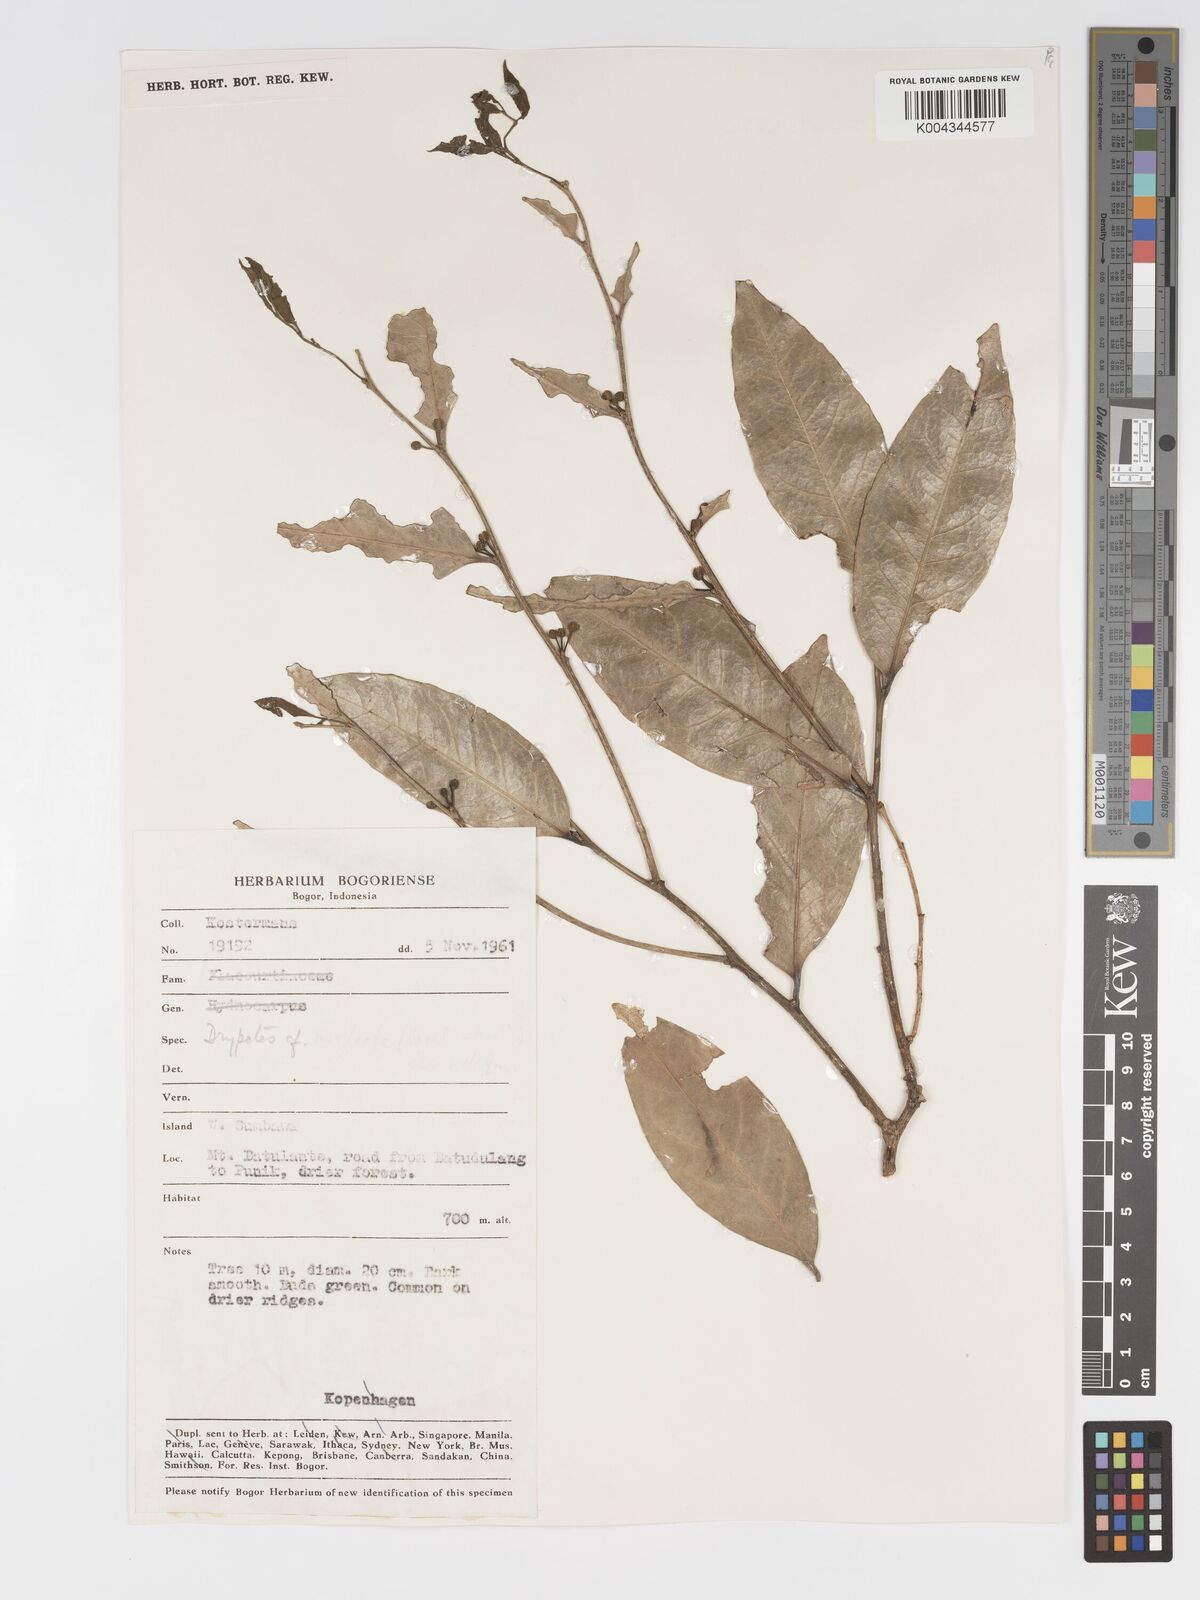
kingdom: Plantae
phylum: Tracheophyta
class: Magnoliopsida
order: Malpighiales
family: Putranjivaceae
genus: Drypetes
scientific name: Drypetes neglecta
